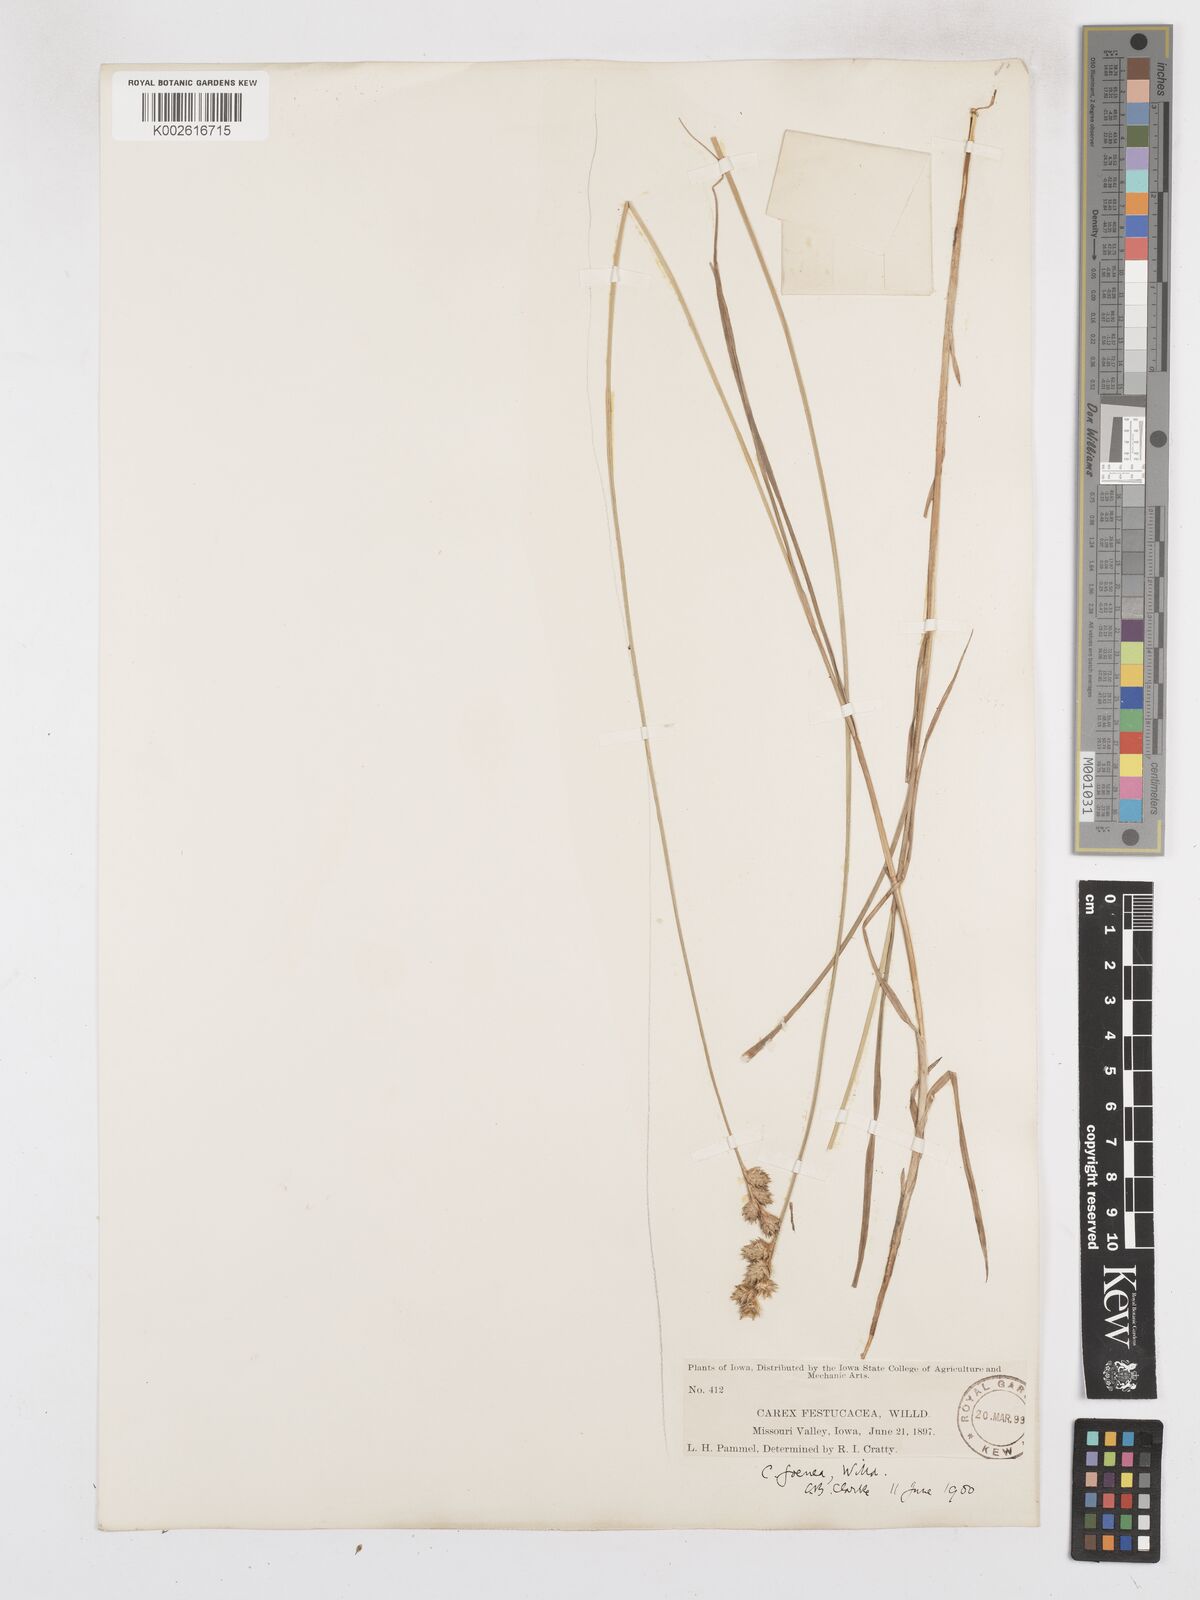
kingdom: Plantae
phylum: Tracheophyta
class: Liliopsida
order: Poales
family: Cyperaceae
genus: Carex
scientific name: Carex argyrantha
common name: Silvery-flowered sedge
